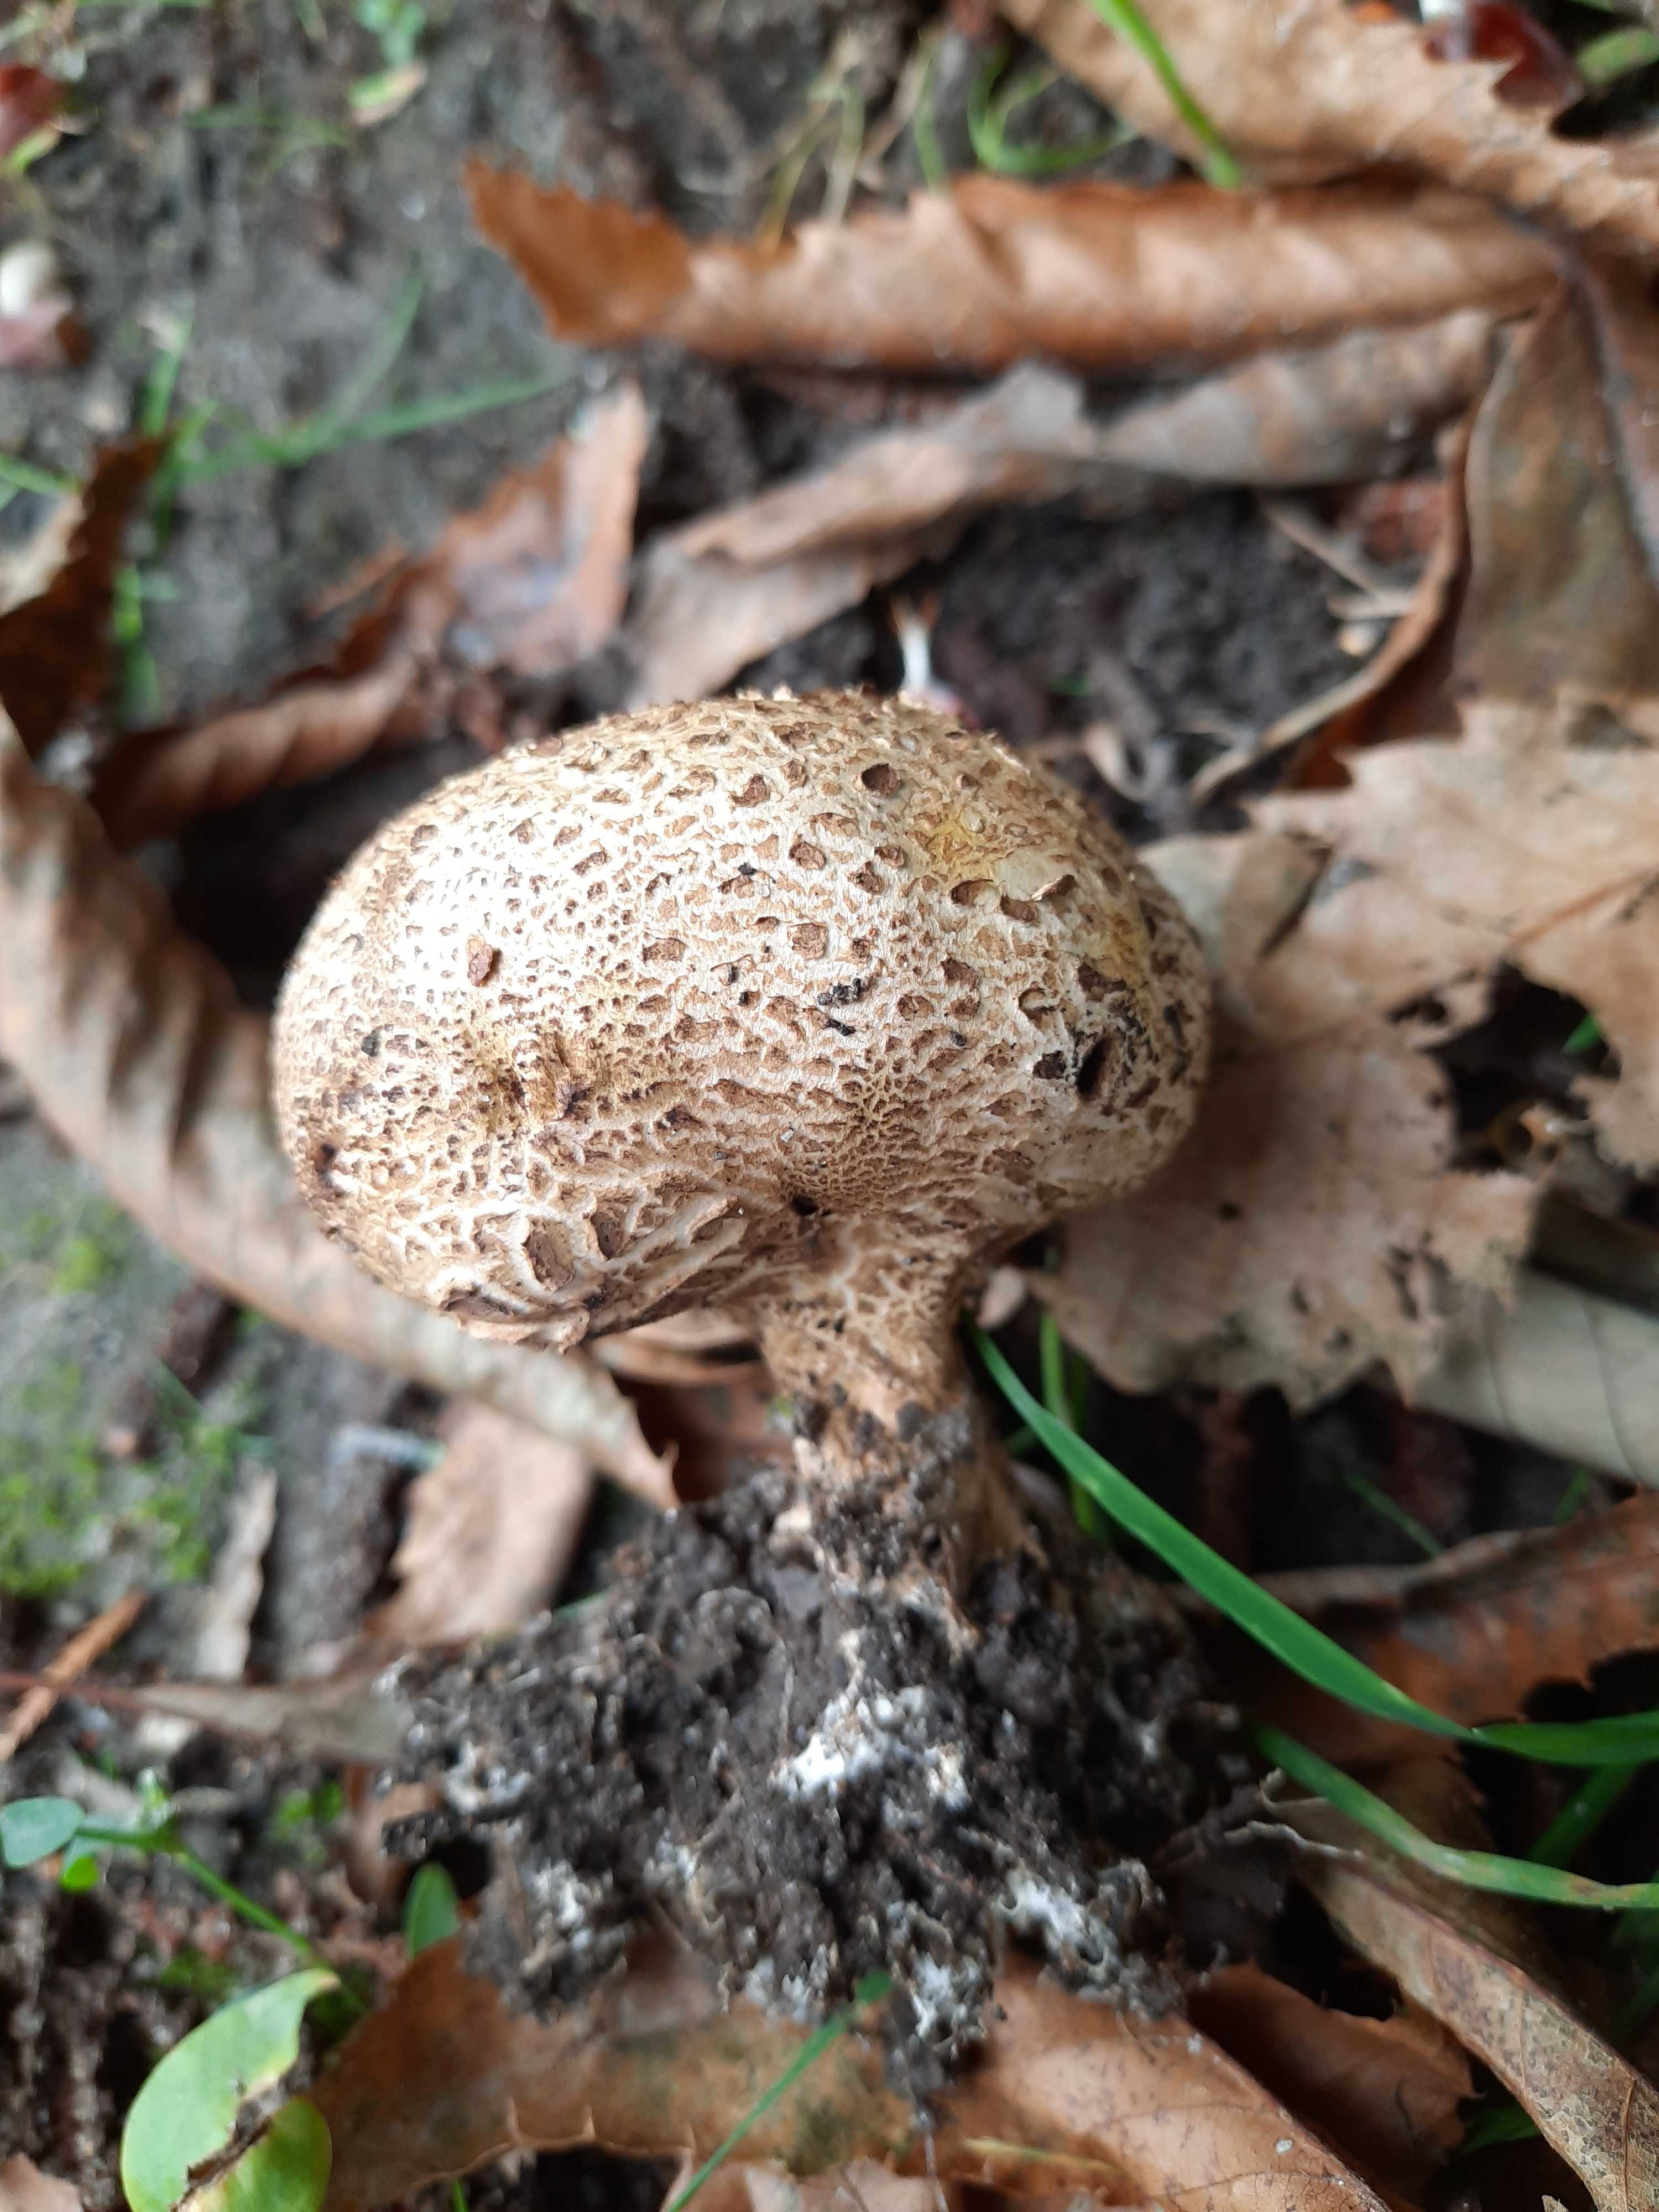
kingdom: Fungi
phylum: Basidiomycota
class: Agaricomycetes
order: Boletales
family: Sclerodermataceae
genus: Scleroderma
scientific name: Scleroderma verrucosum
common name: stilket bruskbold
